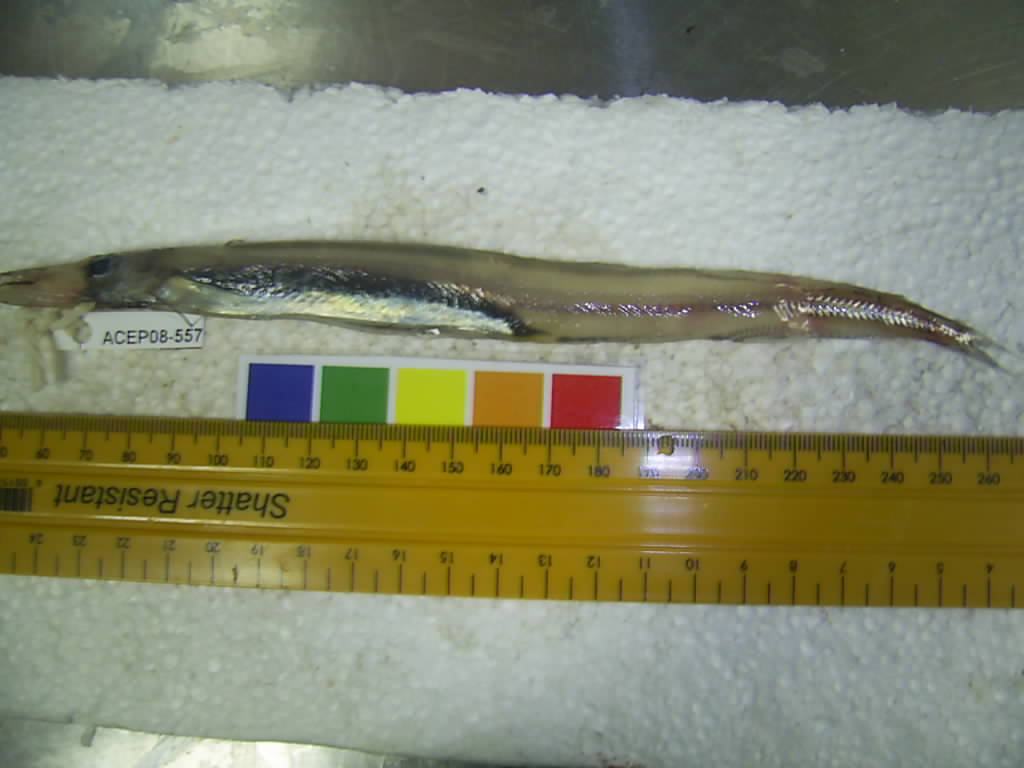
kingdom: Animalia
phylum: Chordata
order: Aulopiformes
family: Paralepididae
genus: Lestidium
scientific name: Lestidium
